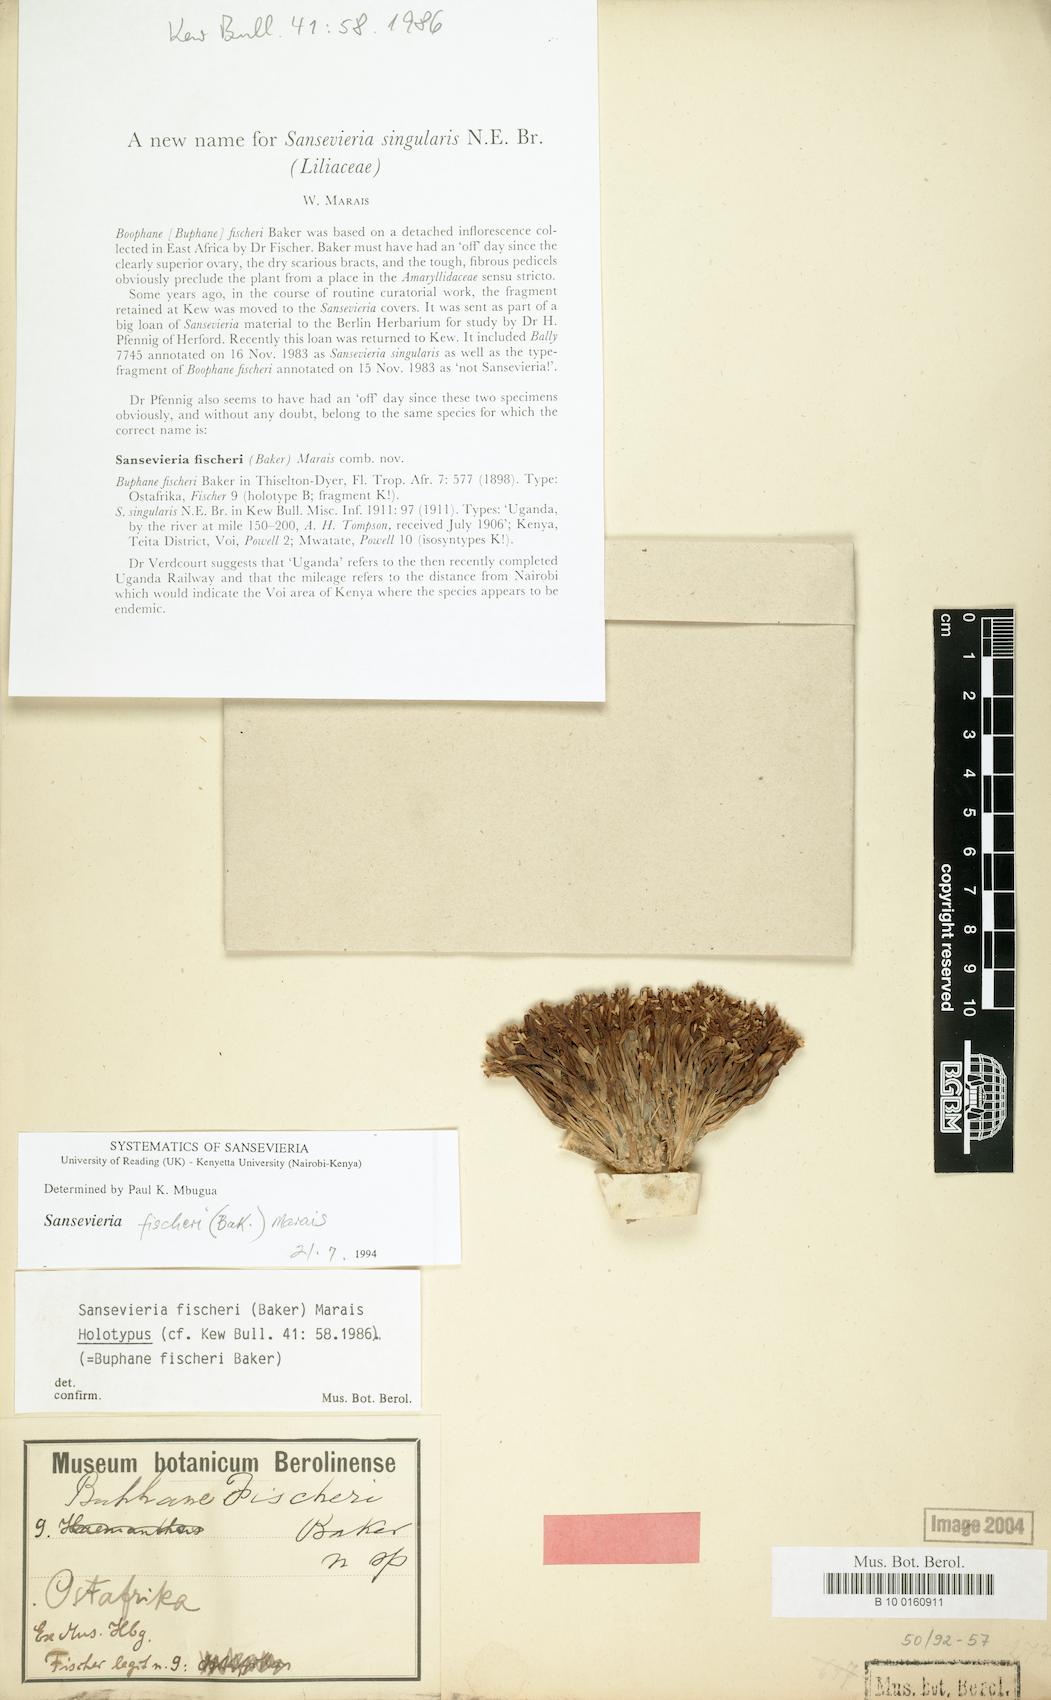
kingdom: Plantae
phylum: Tracheophyta
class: Liliopsida
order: Asparagales
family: Asparagaceae
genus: Dracaena
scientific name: Dracaena singularis
